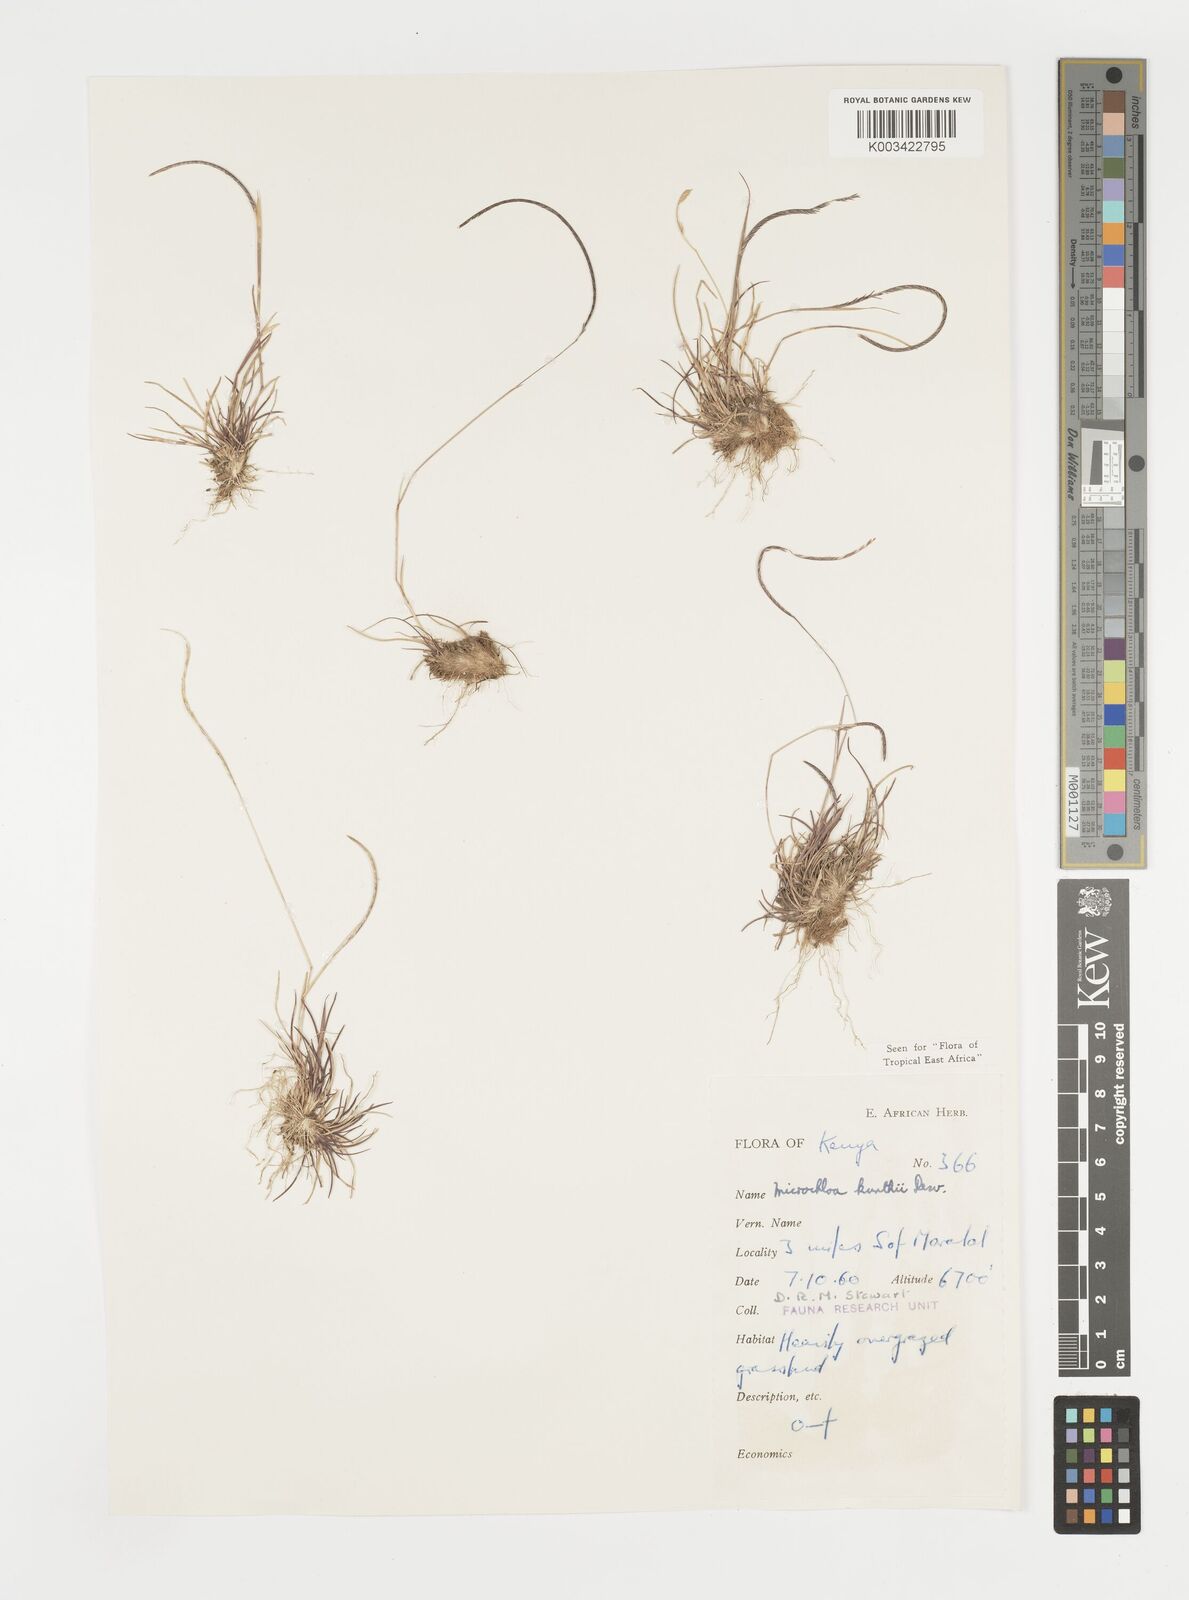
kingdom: Plantae
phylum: Tracheophyta
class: Liliopsida
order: Poales
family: Poaceae
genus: Microchloa
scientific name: Microchloa kunthii
